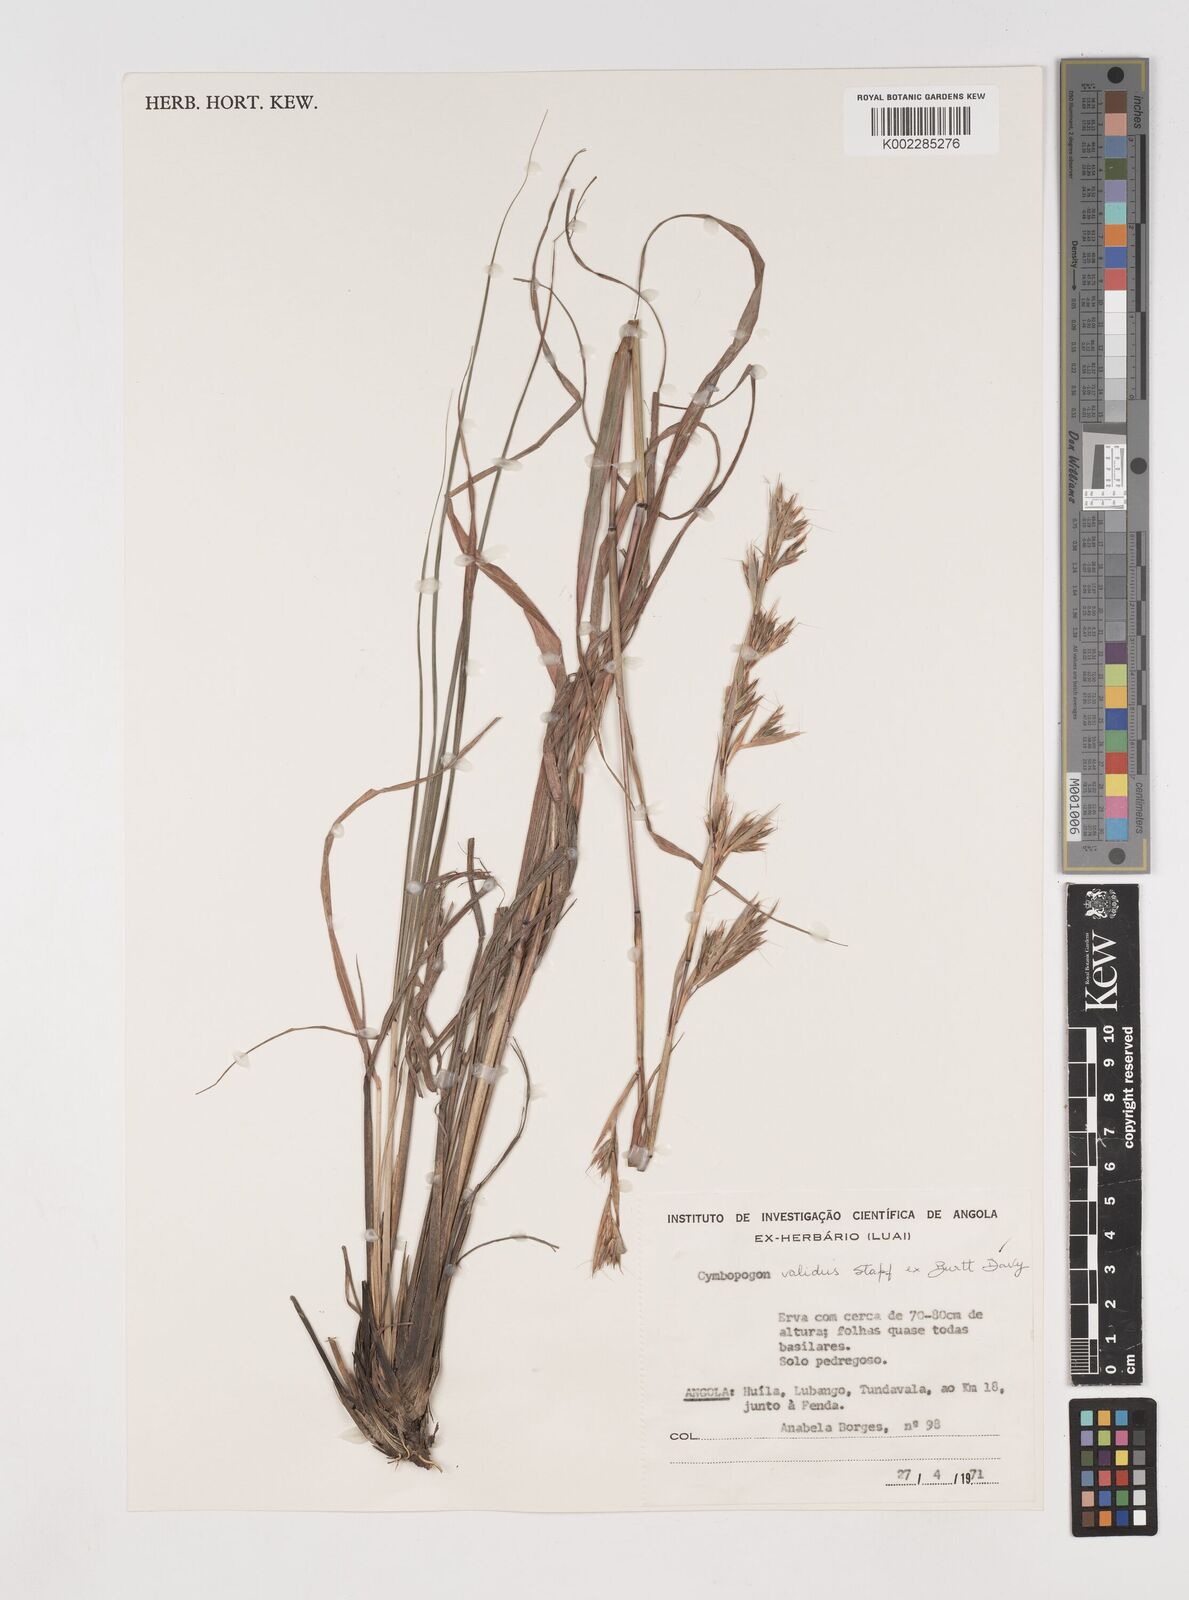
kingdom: Plantae
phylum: Tracheophyta
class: Liliopsida
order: Poales
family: Poaceae
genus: Cymbopogon
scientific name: Cymbopogon marginatus
